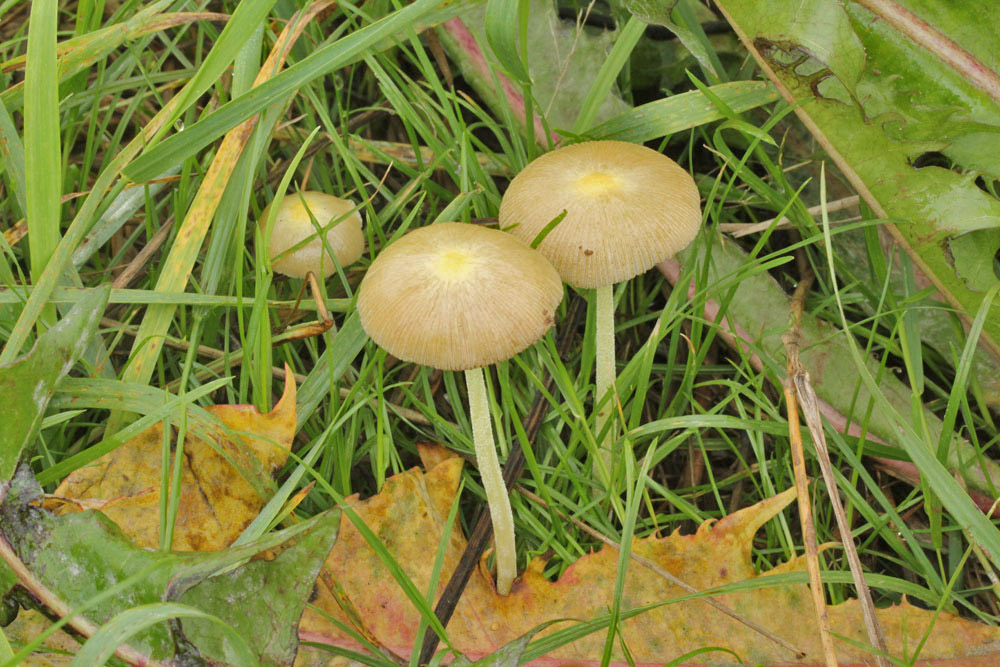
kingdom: Fungi
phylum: Basidiomycota
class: Agaricomycetes
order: Agaricales
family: Bolbitiaceae
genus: Bolbitius
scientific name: Bolbitius titubans
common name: almindelig gulhat
